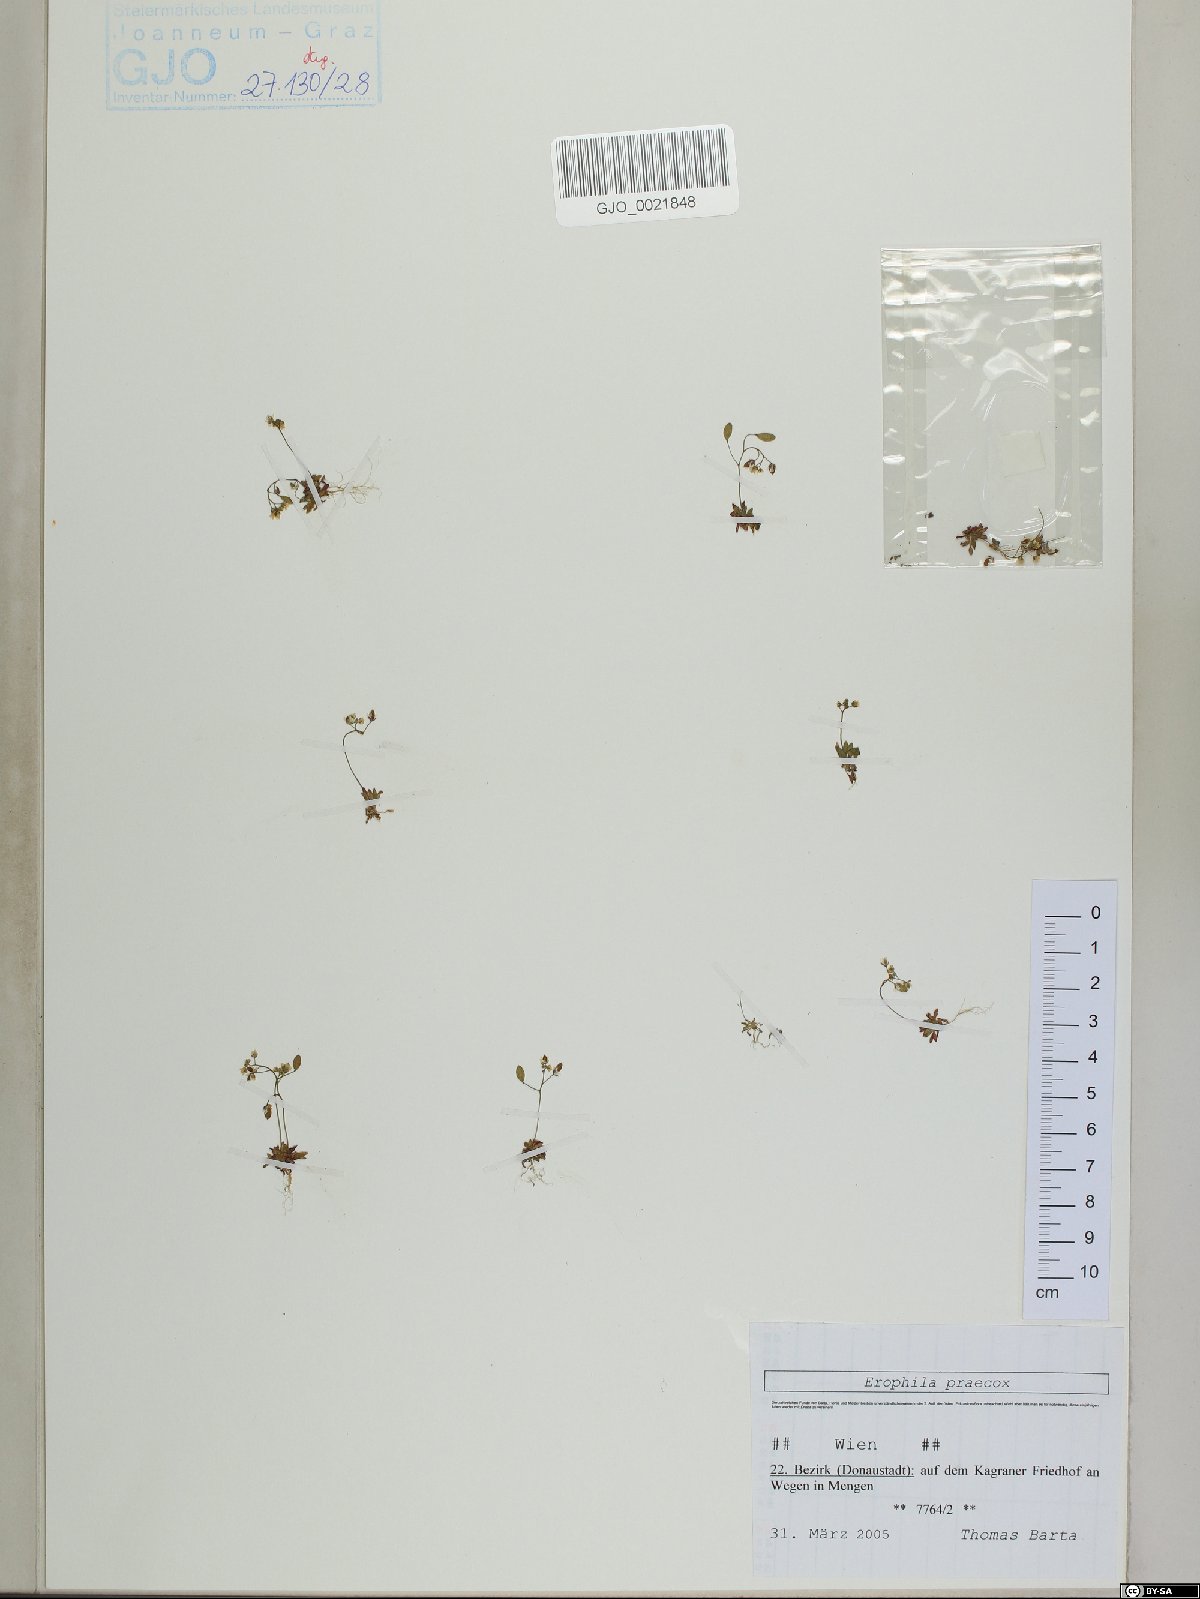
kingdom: Plantae
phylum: Tracheophyta
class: Magnoliopsida
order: Brassicales
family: Brassicaceae
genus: Draba
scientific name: Draba verna
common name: Spring draba
